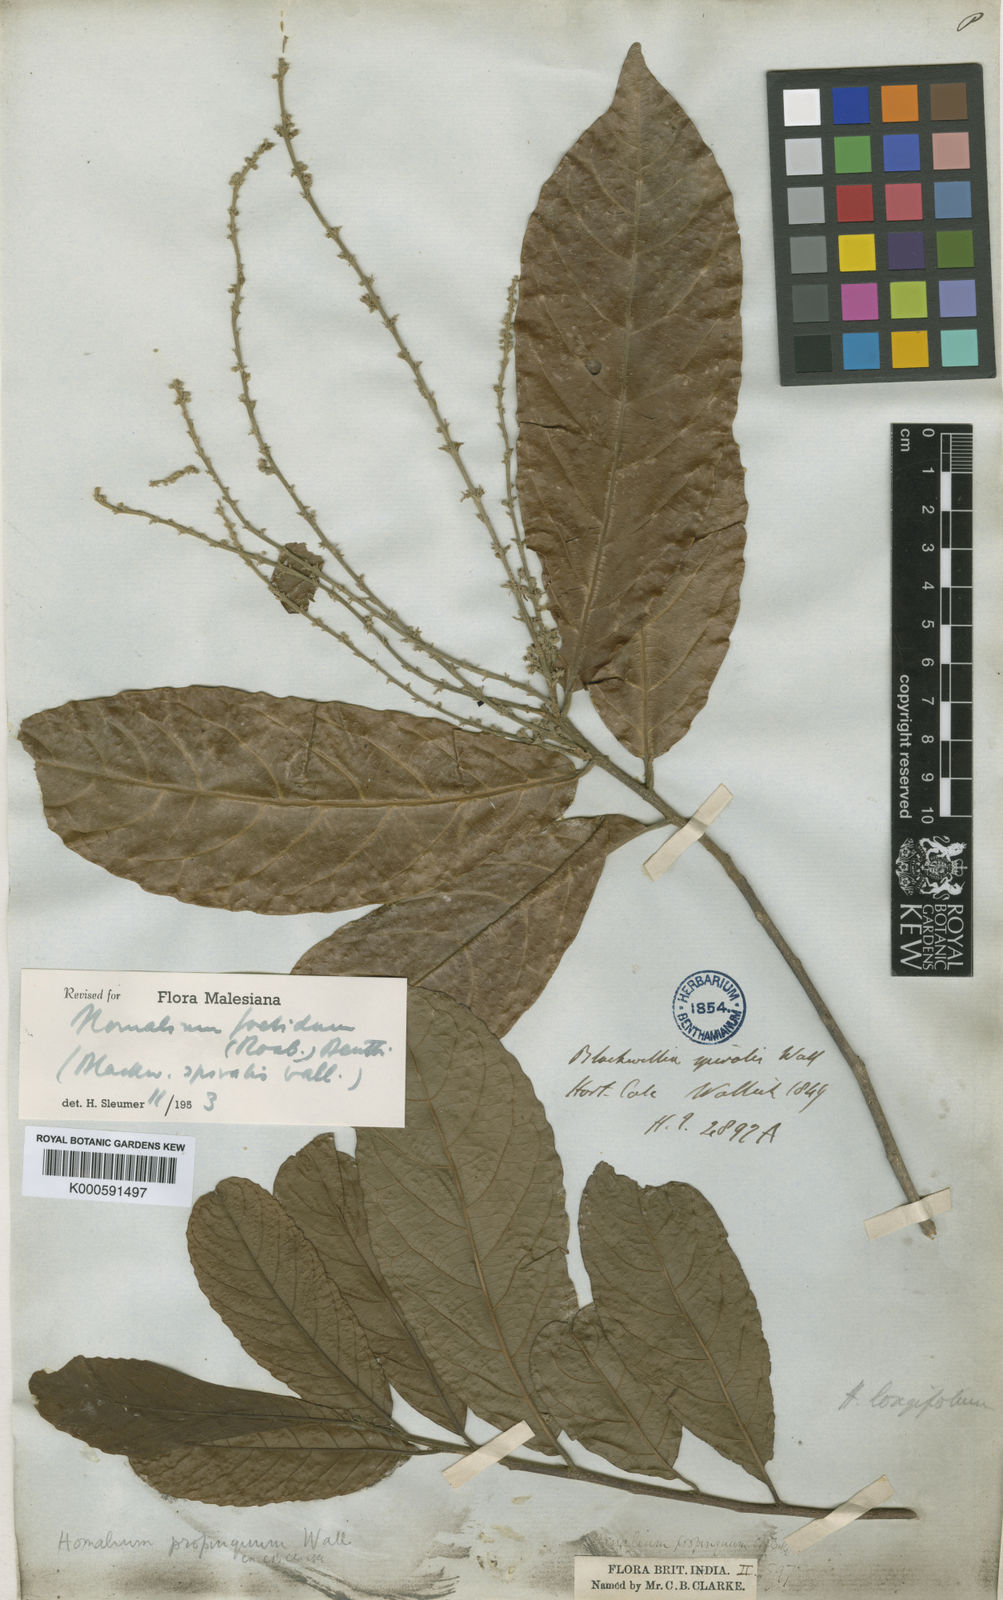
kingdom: Plantae
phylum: Tracheophyta
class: Magnoliopsida
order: Malpighiales
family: Salicaceae
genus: Homalium
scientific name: Homalium foetidum
